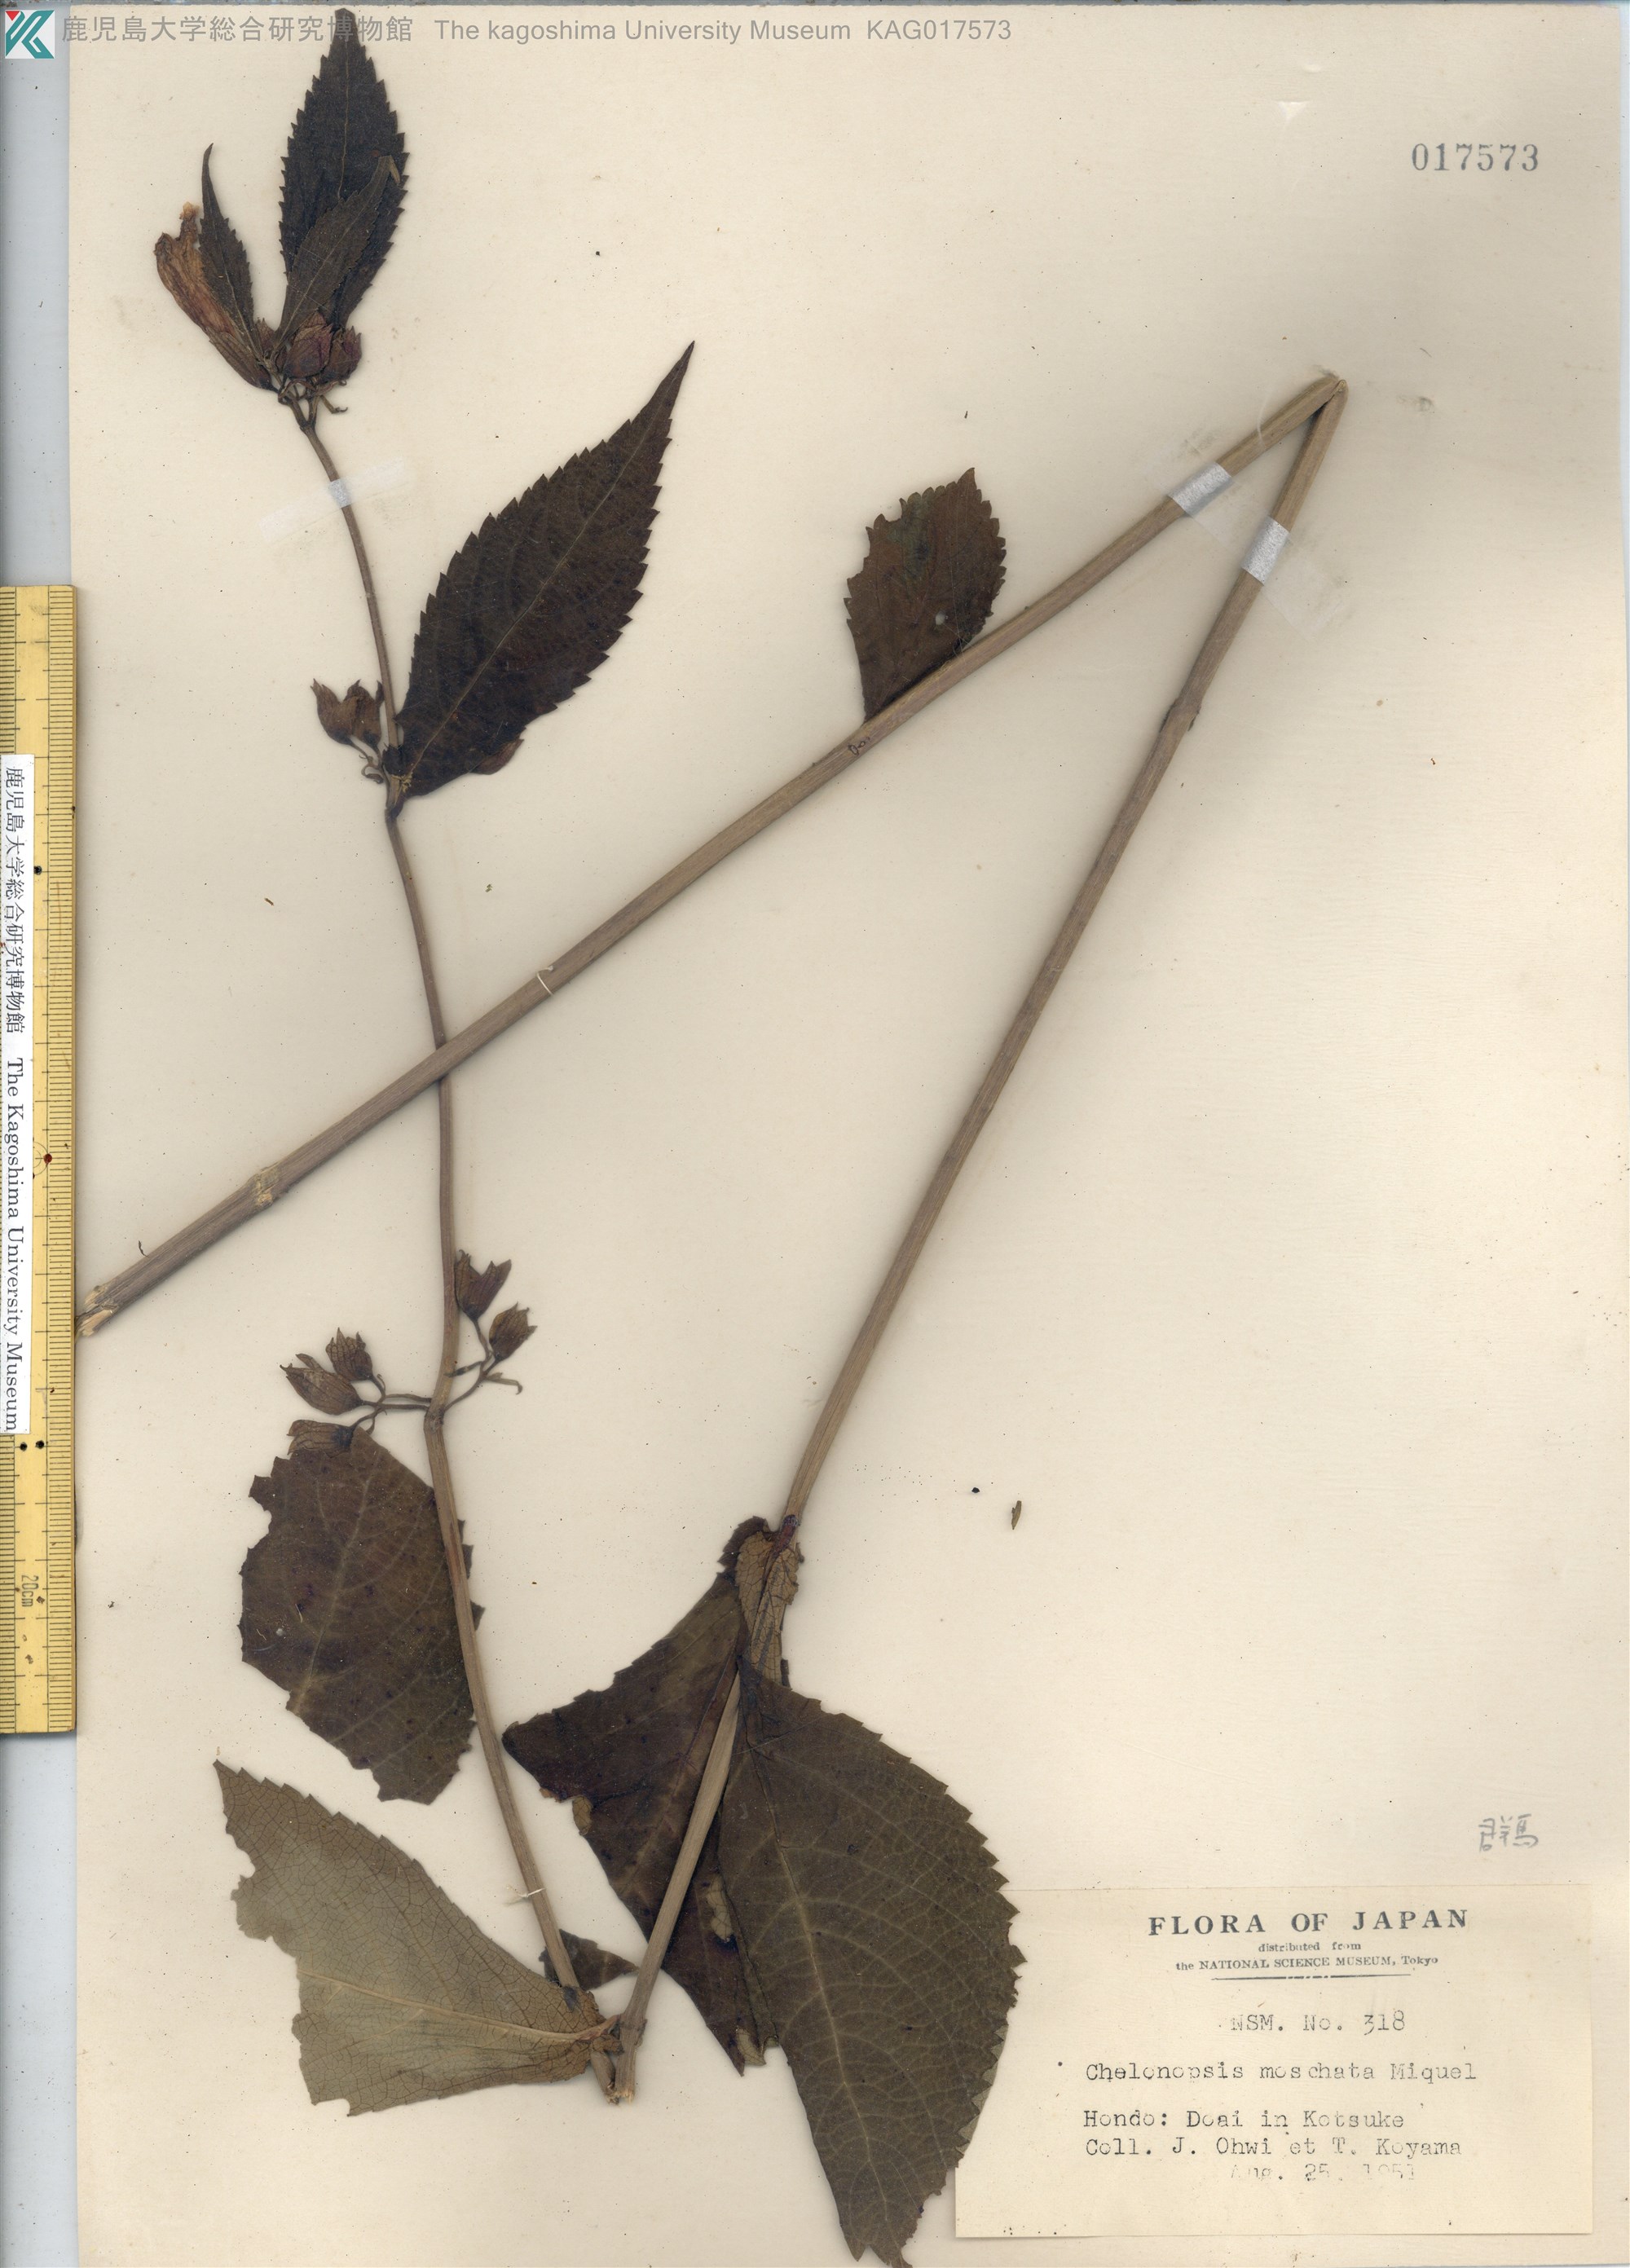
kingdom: Plantae
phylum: Tracheophyta
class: Magnoliopsida
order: Lamiales
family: Lamiaceae
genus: Chelonopsis
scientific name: Chelonopsis moschata
